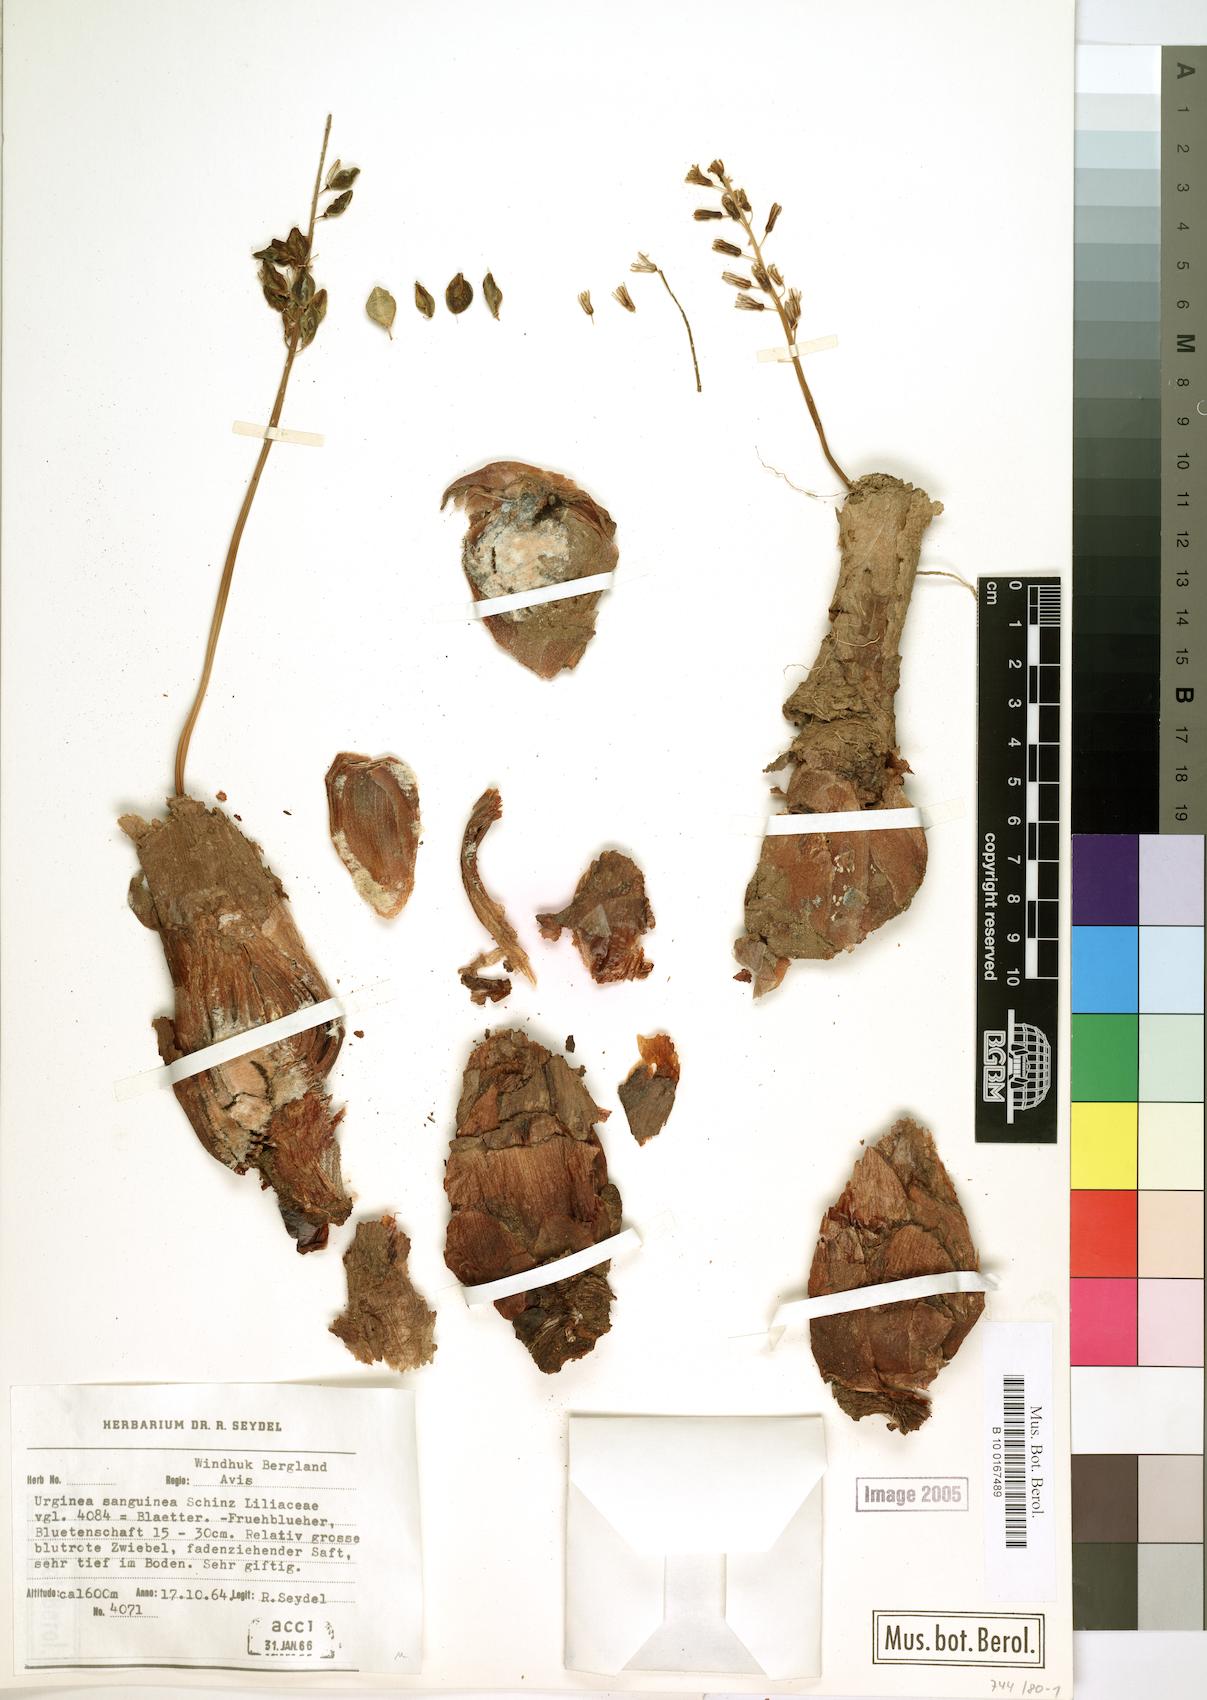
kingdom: Plantae
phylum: Tracheophyta
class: Liliopsida
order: Asparagales
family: Asparagaceae
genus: Drimia
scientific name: Drimia sanguinea
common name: Transvaal slangkop
